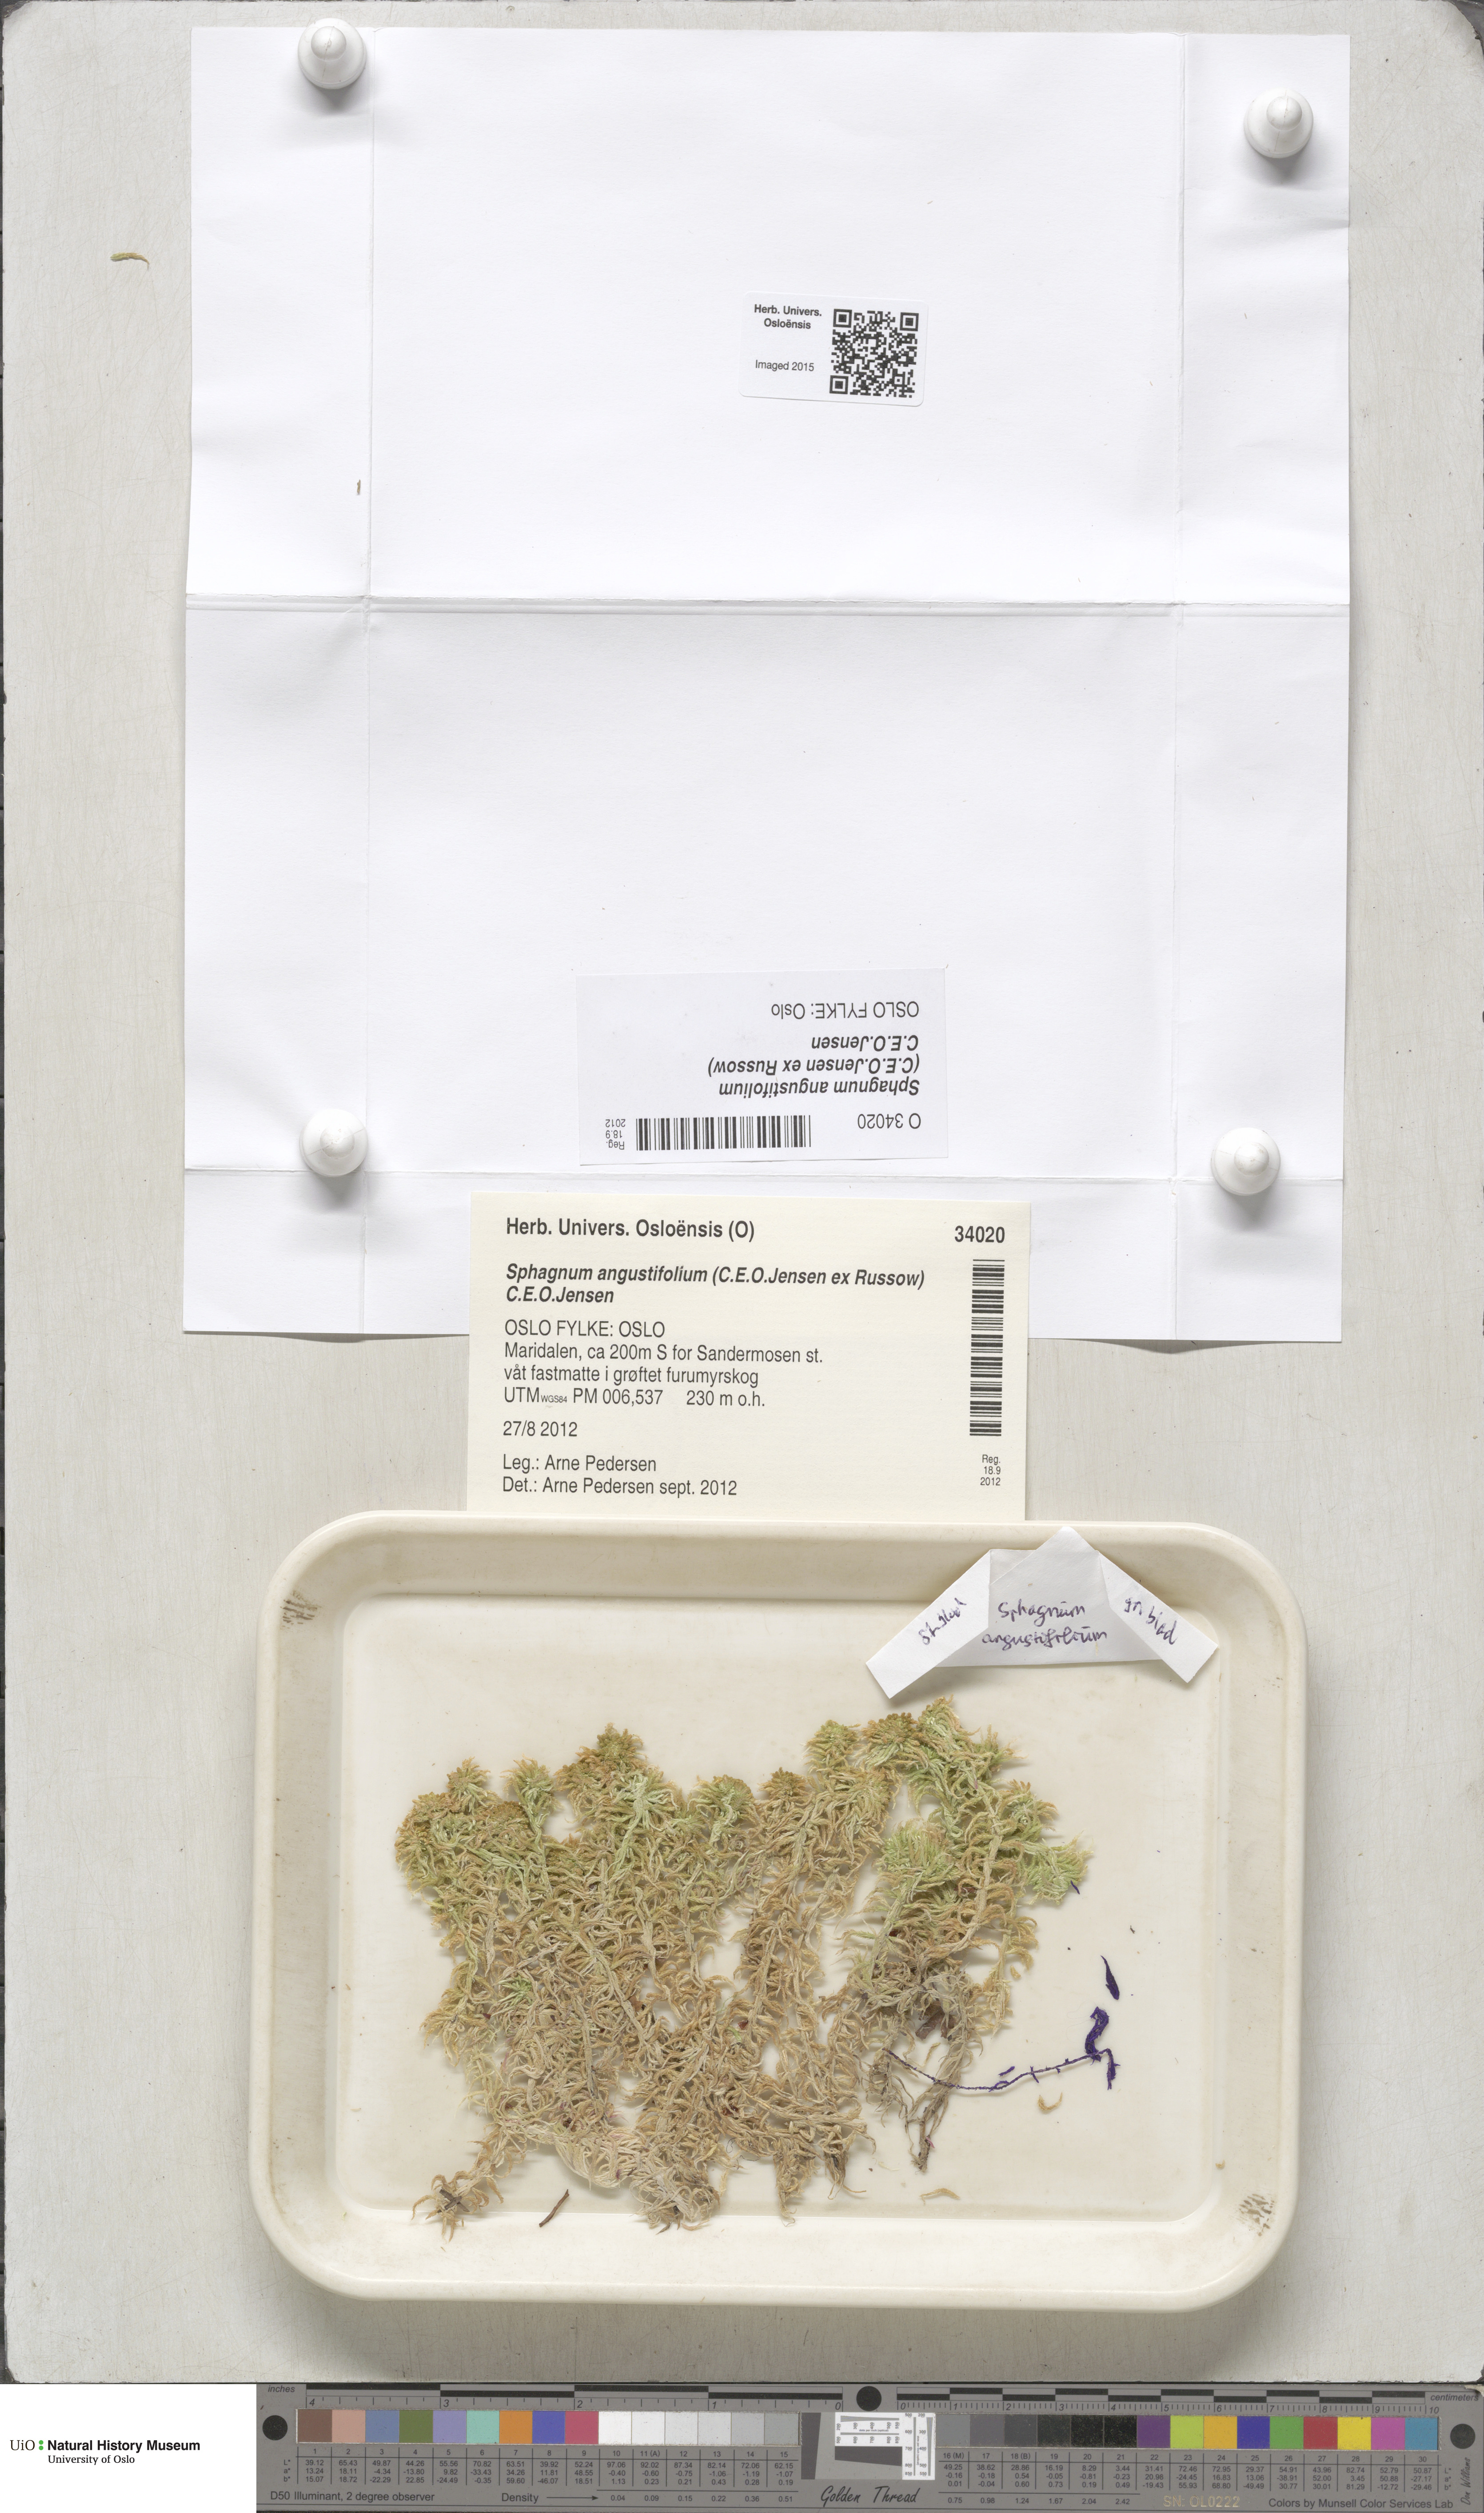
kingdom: Plantae
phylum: Bryophyta
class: Sphagnopsida
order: Sphagnales
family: Sphagnaceae
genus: Sphagnum
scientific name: Sphagnum angustifolium
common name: Narrow-leaved peat moss
